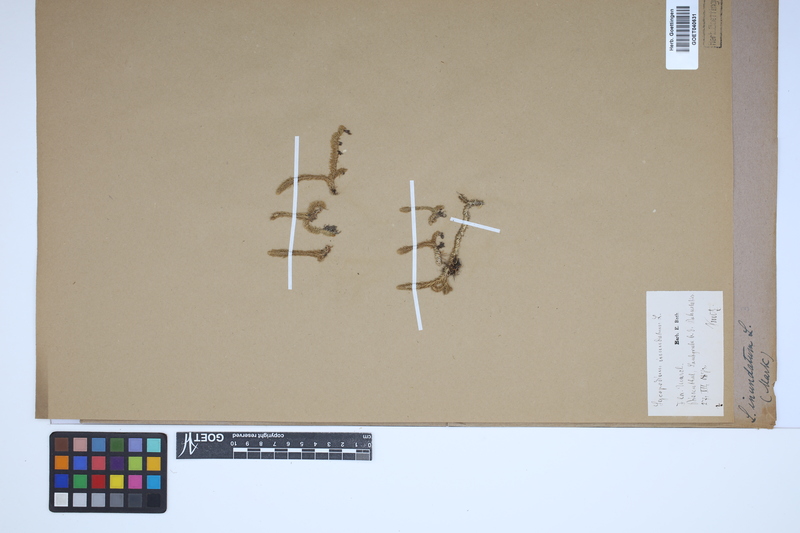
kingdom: Plantae
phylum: Tracheophyta
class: Lycopodiopsida
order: Lycopodiales
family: Lycopodiaceae
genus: Lycopodiella
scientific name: Lycopodiella inundata
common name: Marsh clubmoss
